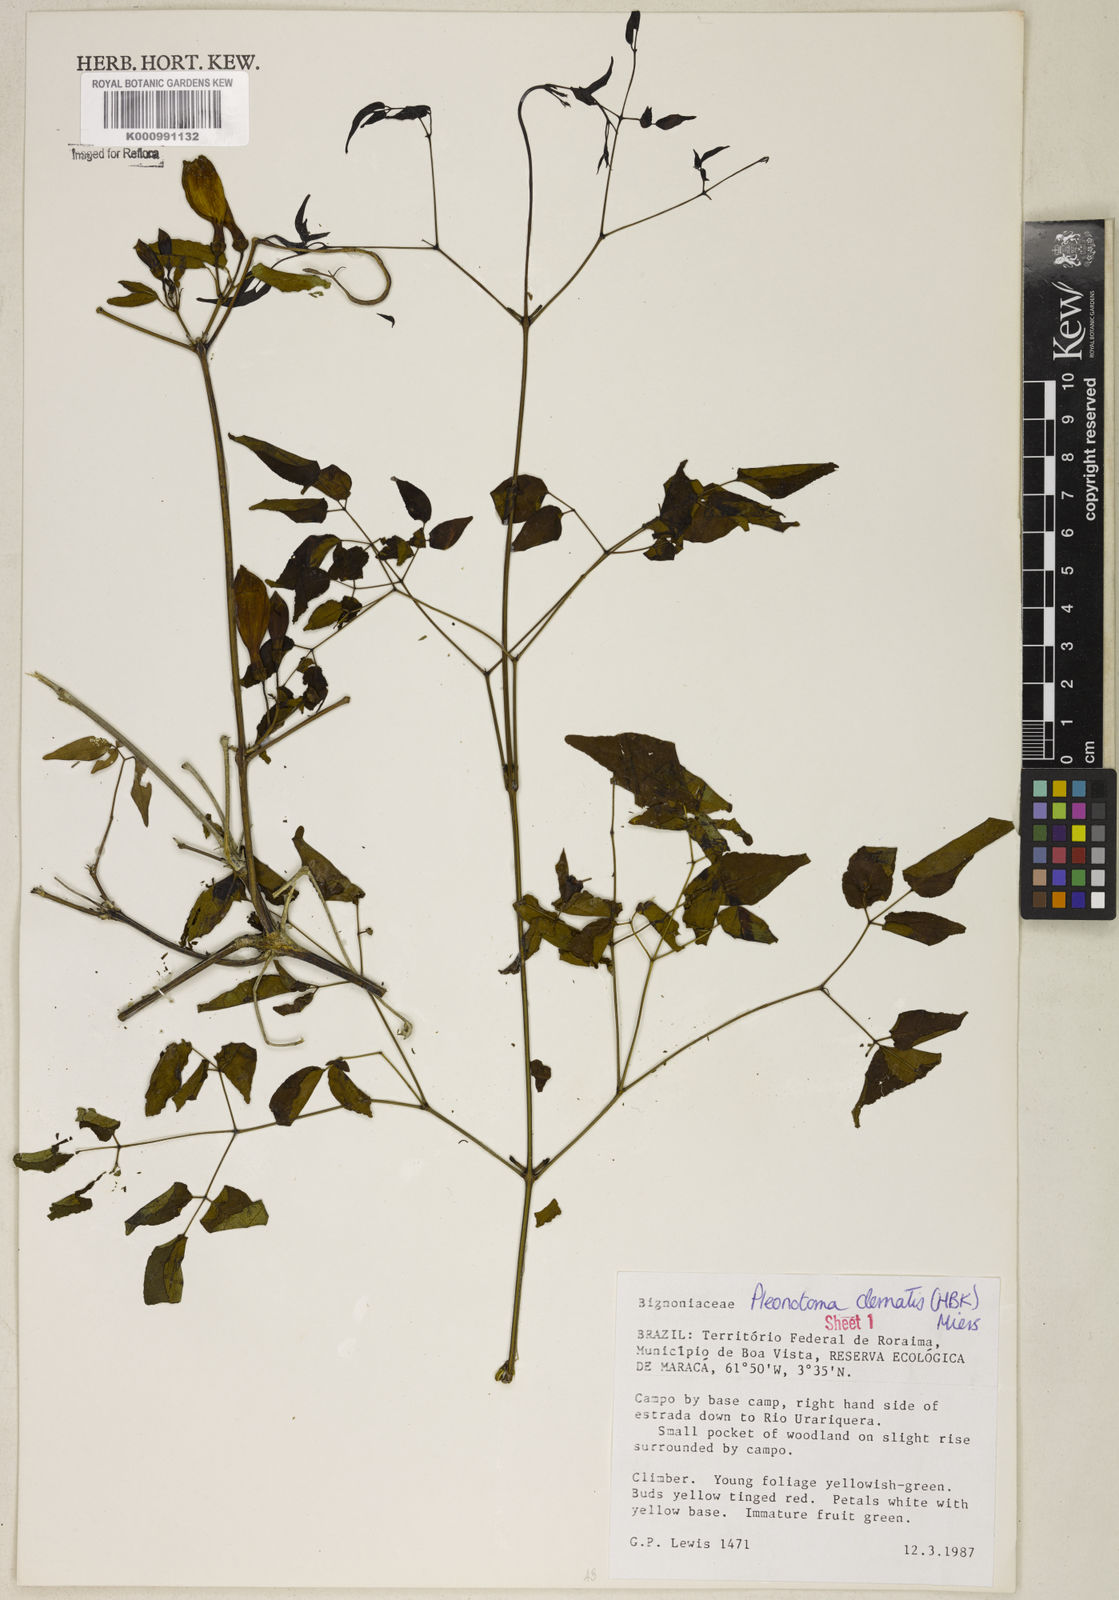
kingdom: Plantae
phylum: Tracheophyta
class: Magnoliopsida
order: Lamiales
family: Bignoniaceae
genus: Pleonotoma
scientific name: Pleonotoma clematis
